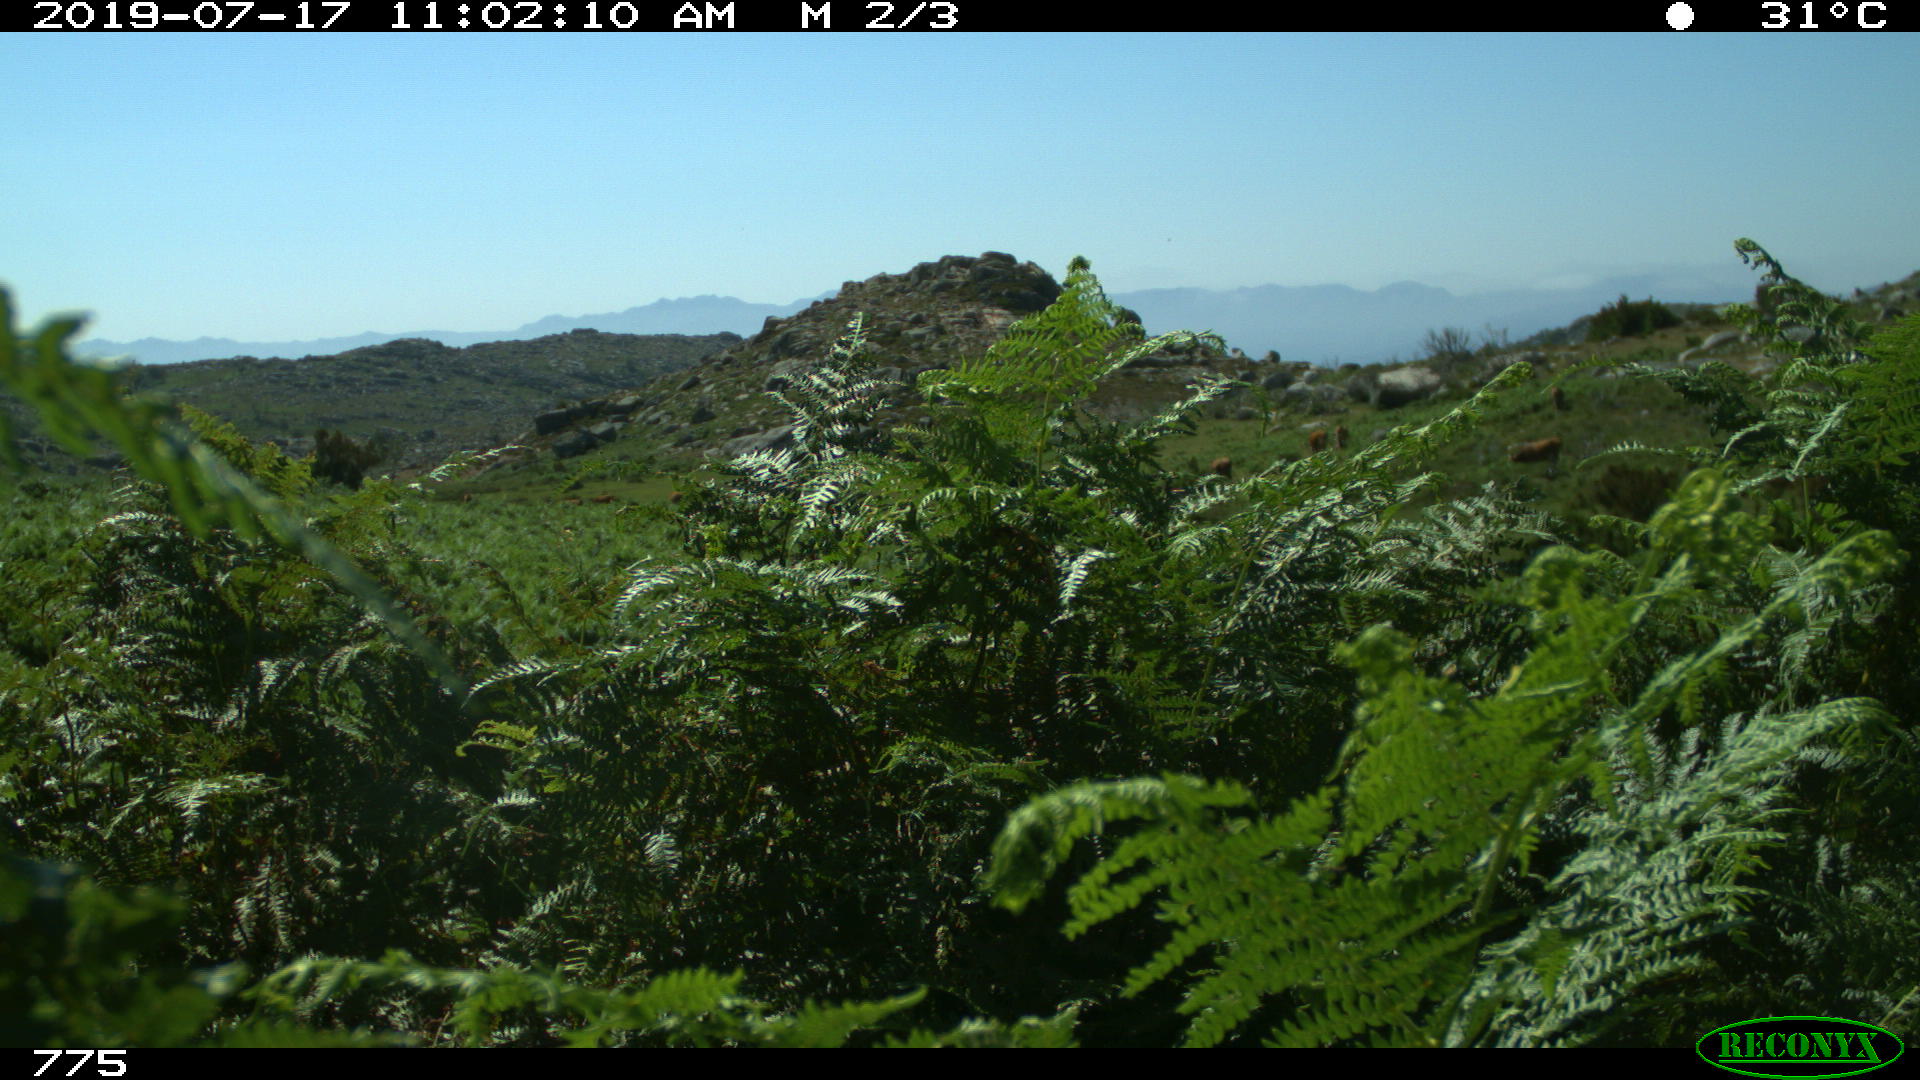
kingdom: Animalia
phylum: Chordata
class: Mammalia
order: Artiodactyla
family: Bovidae
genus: Bos
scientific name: Bos taurus
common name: Domesticated cattle
